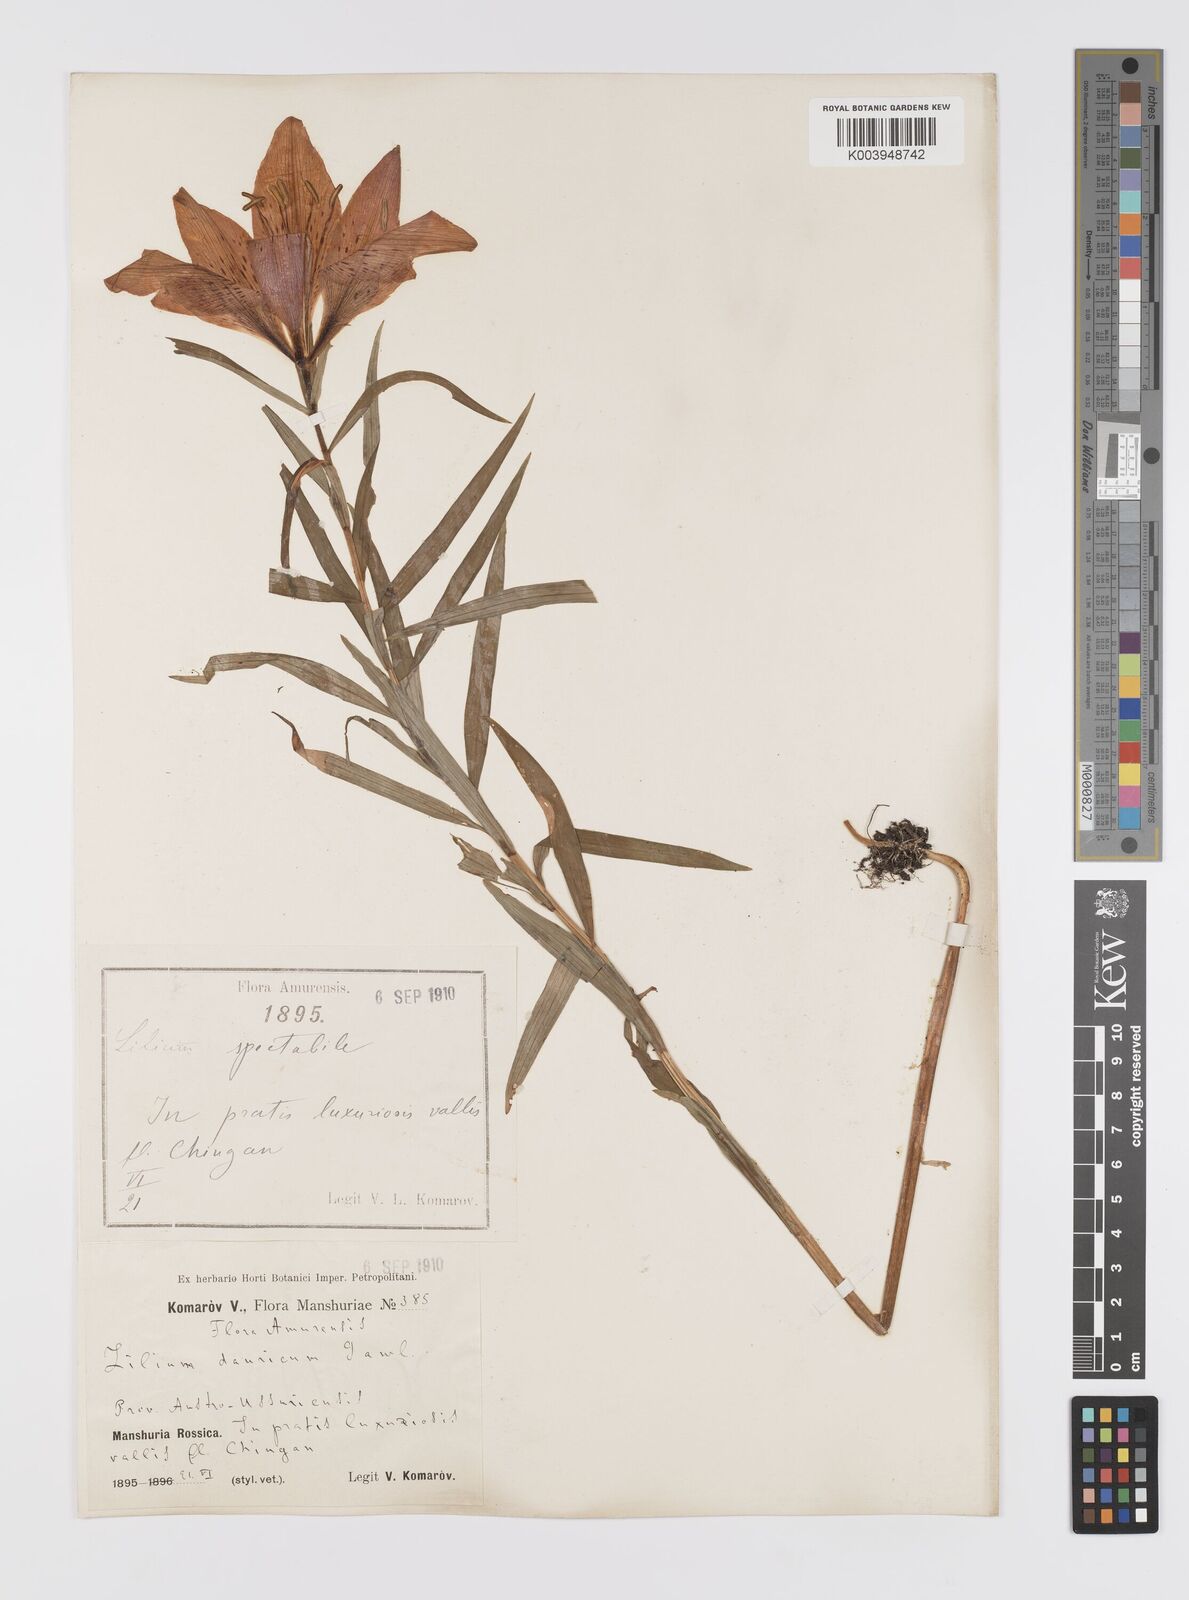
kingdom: Plantae
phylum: Tracheophyta
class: Liliopsida
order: Liliales
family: Liliaceae
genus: Lilium
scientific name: Lilium pensylvanicum
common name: Candlestick lily
